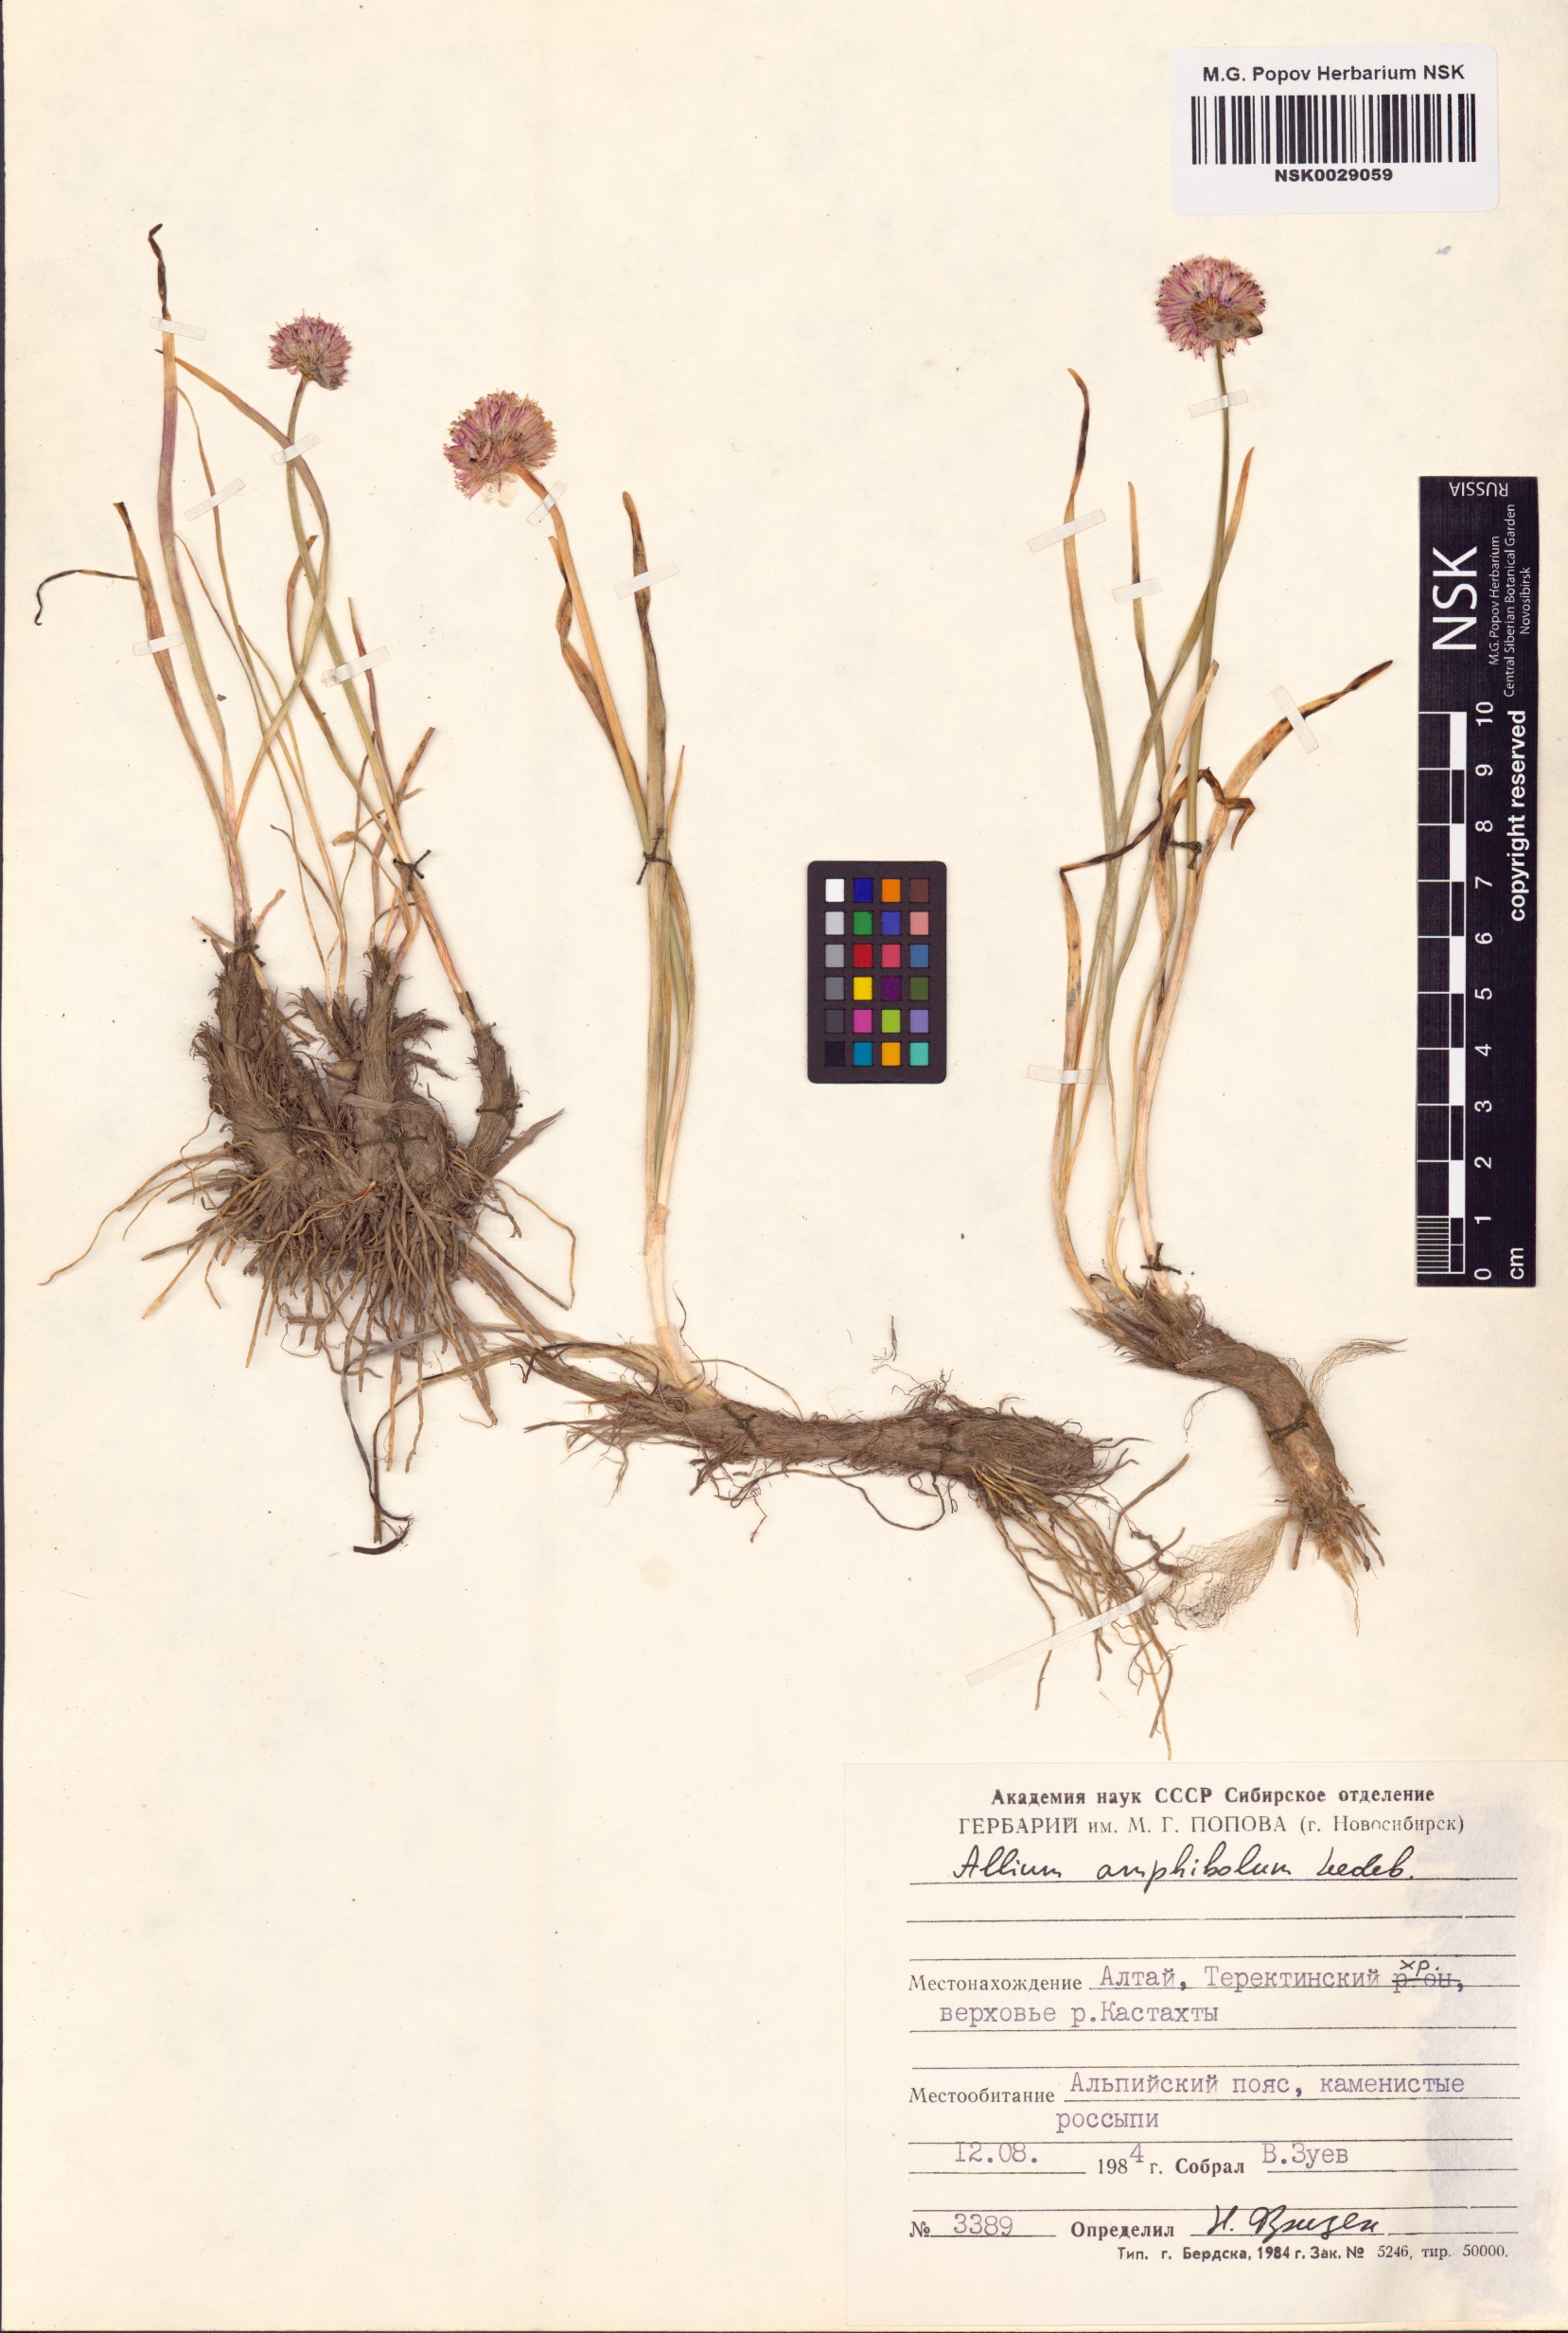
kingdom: Plantae
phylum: Tracheophyta
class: Liliopsida
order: Asparagales
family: Amaryllidaceae
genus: Allium
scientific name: Allium amphibolum
